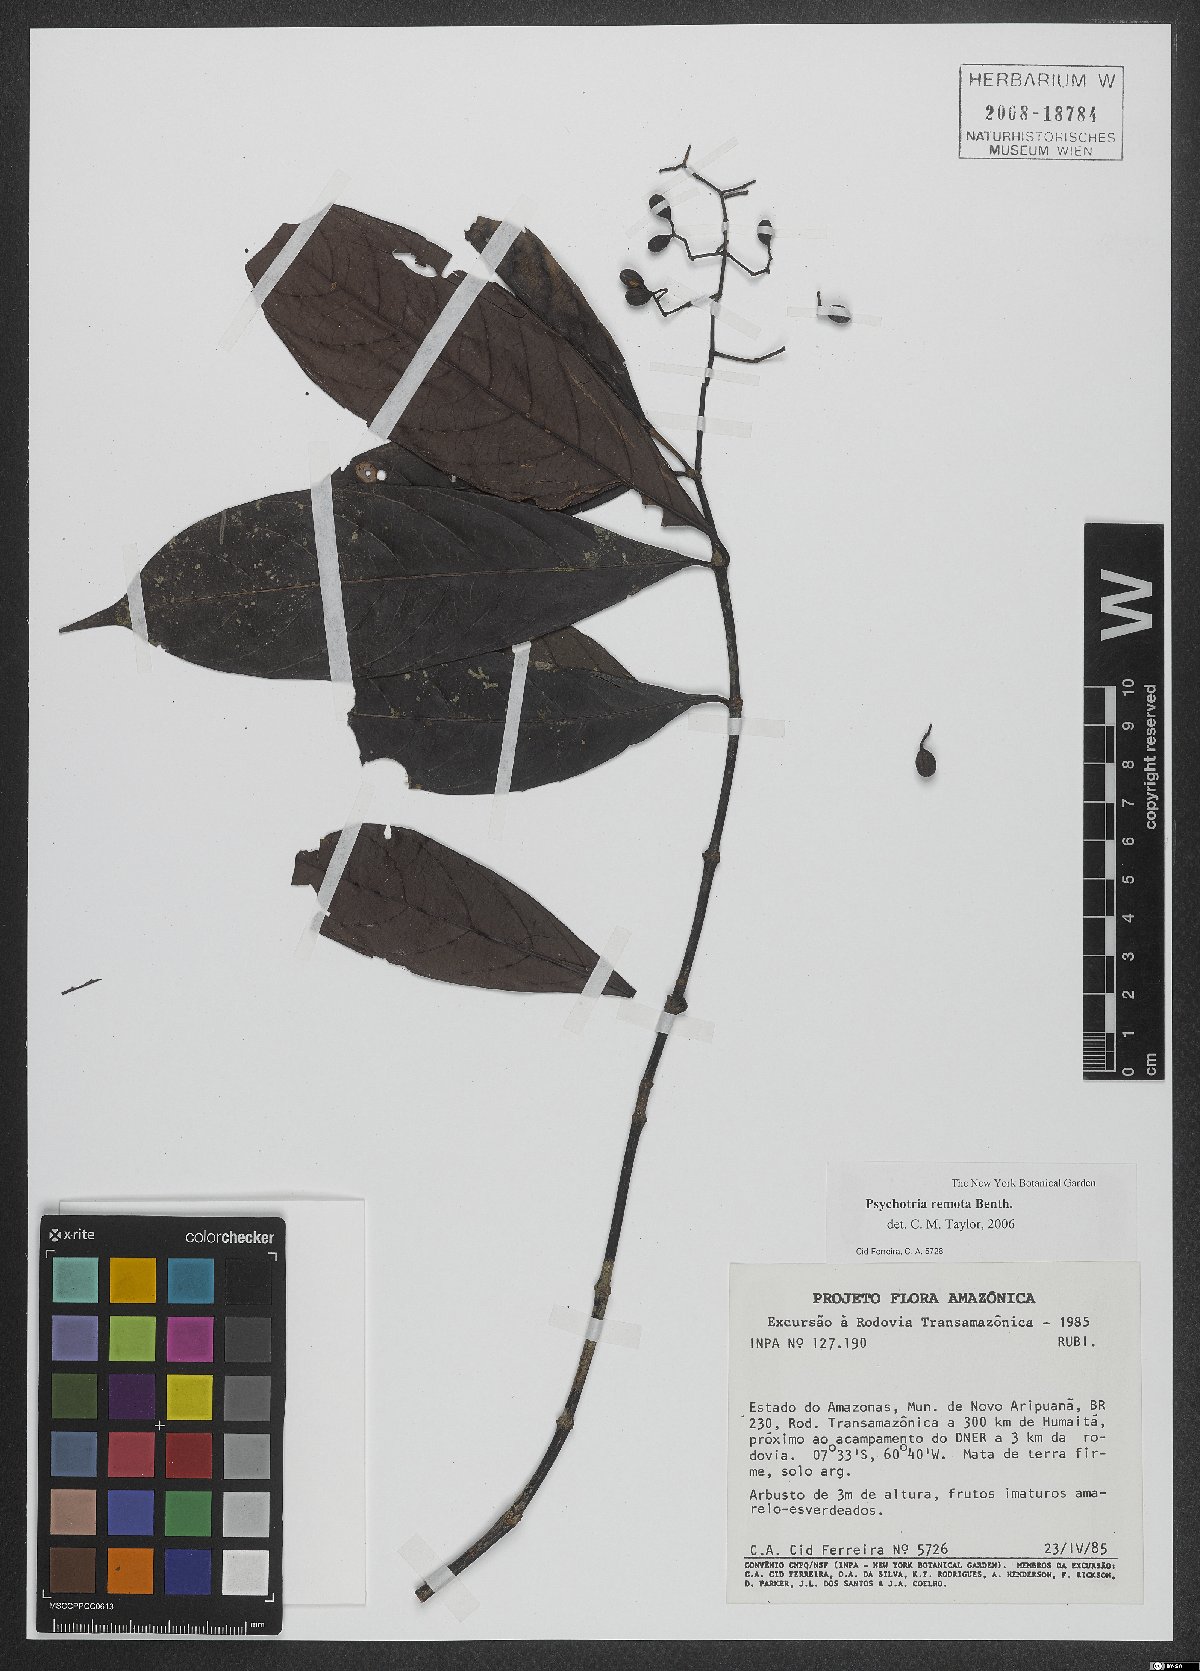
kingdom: Plantae
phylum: Tracheophyta
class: Magnoliopsida
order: Gentianales
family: Rubiaceae
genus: Psychotria
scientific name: Psychotria remota
